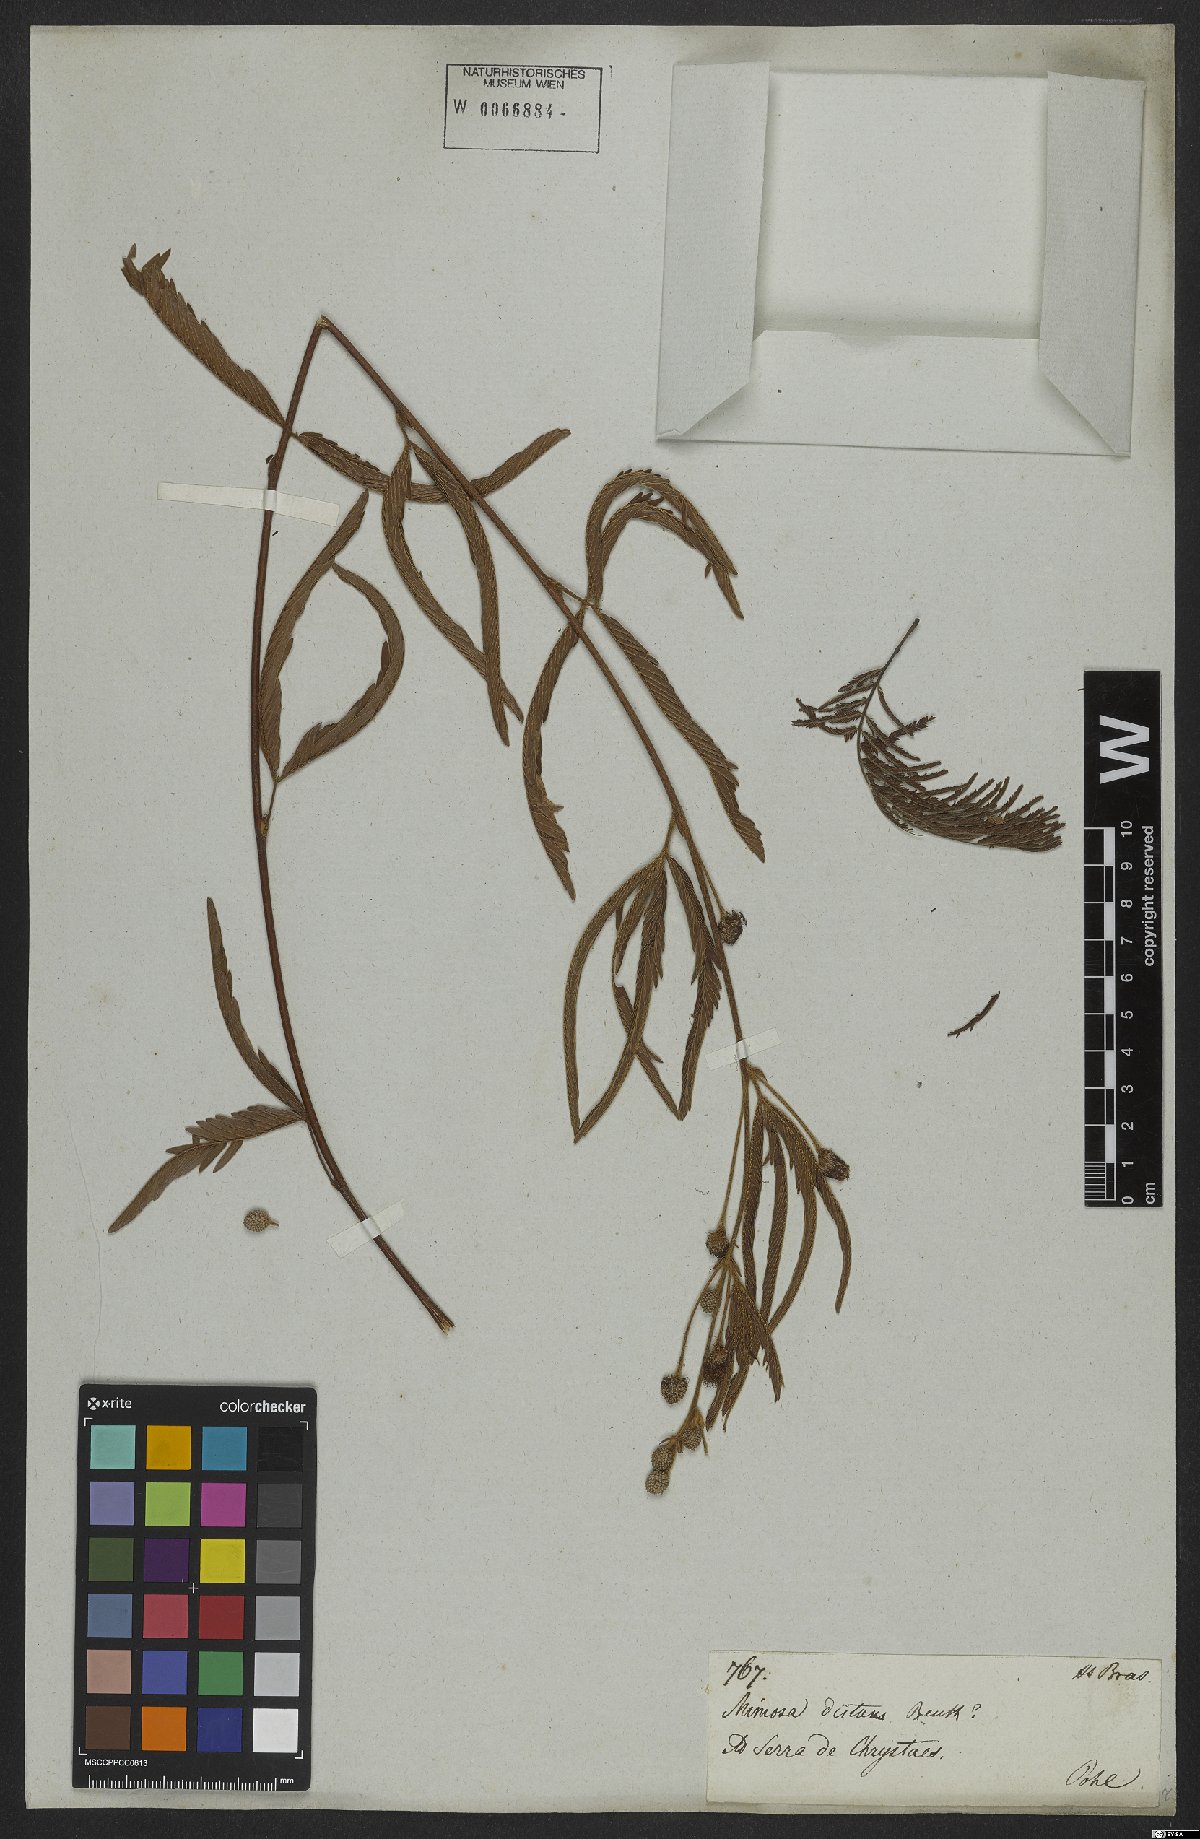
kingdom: Plantae
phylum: Tracheophyta
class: Magnoliopsida
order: Fabales
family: Fabaceae
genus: Mimosa
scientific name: Mimosa distans
